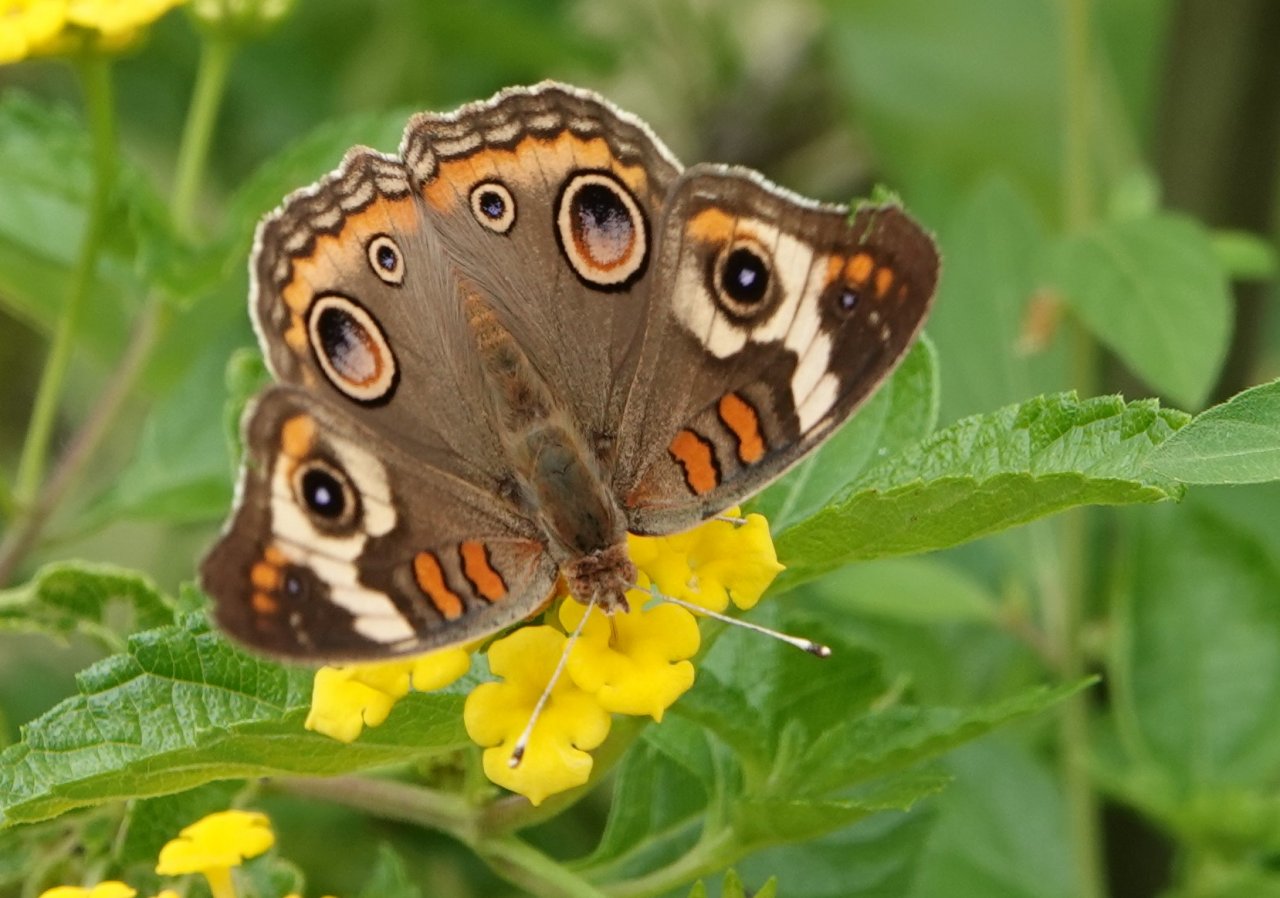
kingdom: Animalia
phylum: Arthropoda
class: Insecta
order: Lepidoptera
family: Nymphalidae
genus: Junonia
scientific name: Junonia coenia
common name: Common Buckeye
